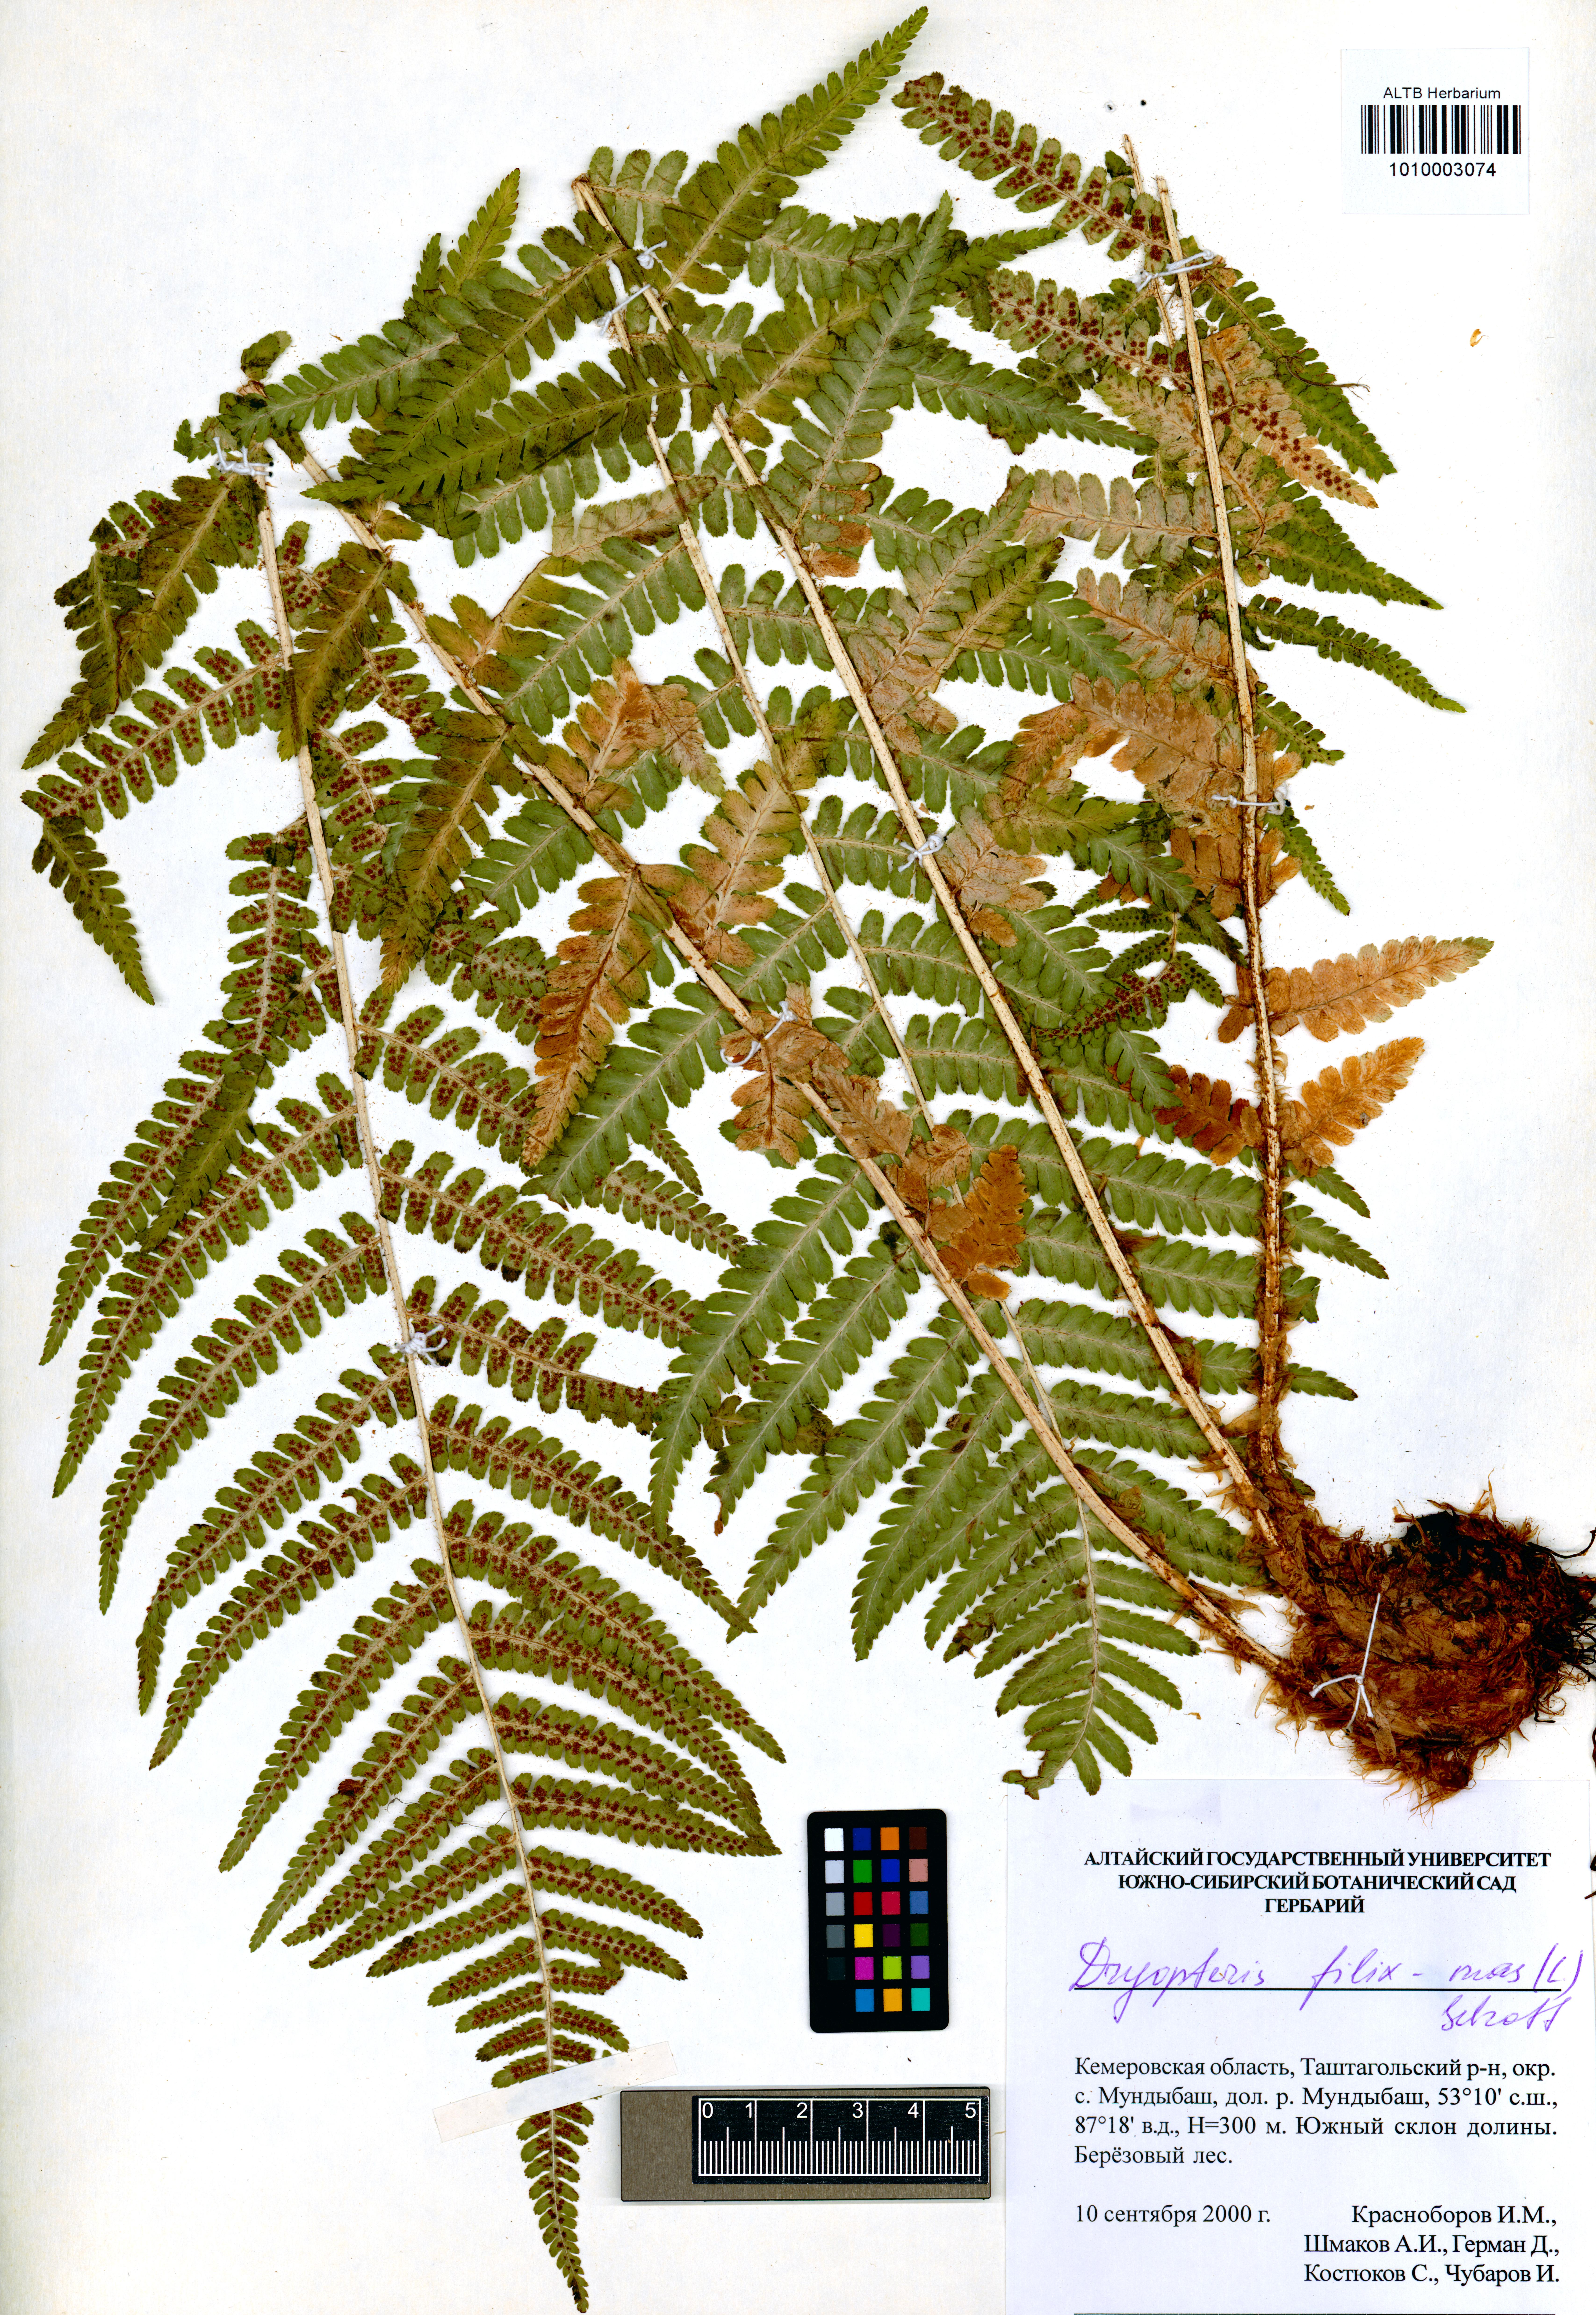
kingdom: Plantae
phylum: Tracheophyta
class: Polypodiopsida
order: Polypodiales
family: Dryopteridaceae
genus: Dryopteris
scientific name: Dryopteris filix-mas
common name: Male fern
